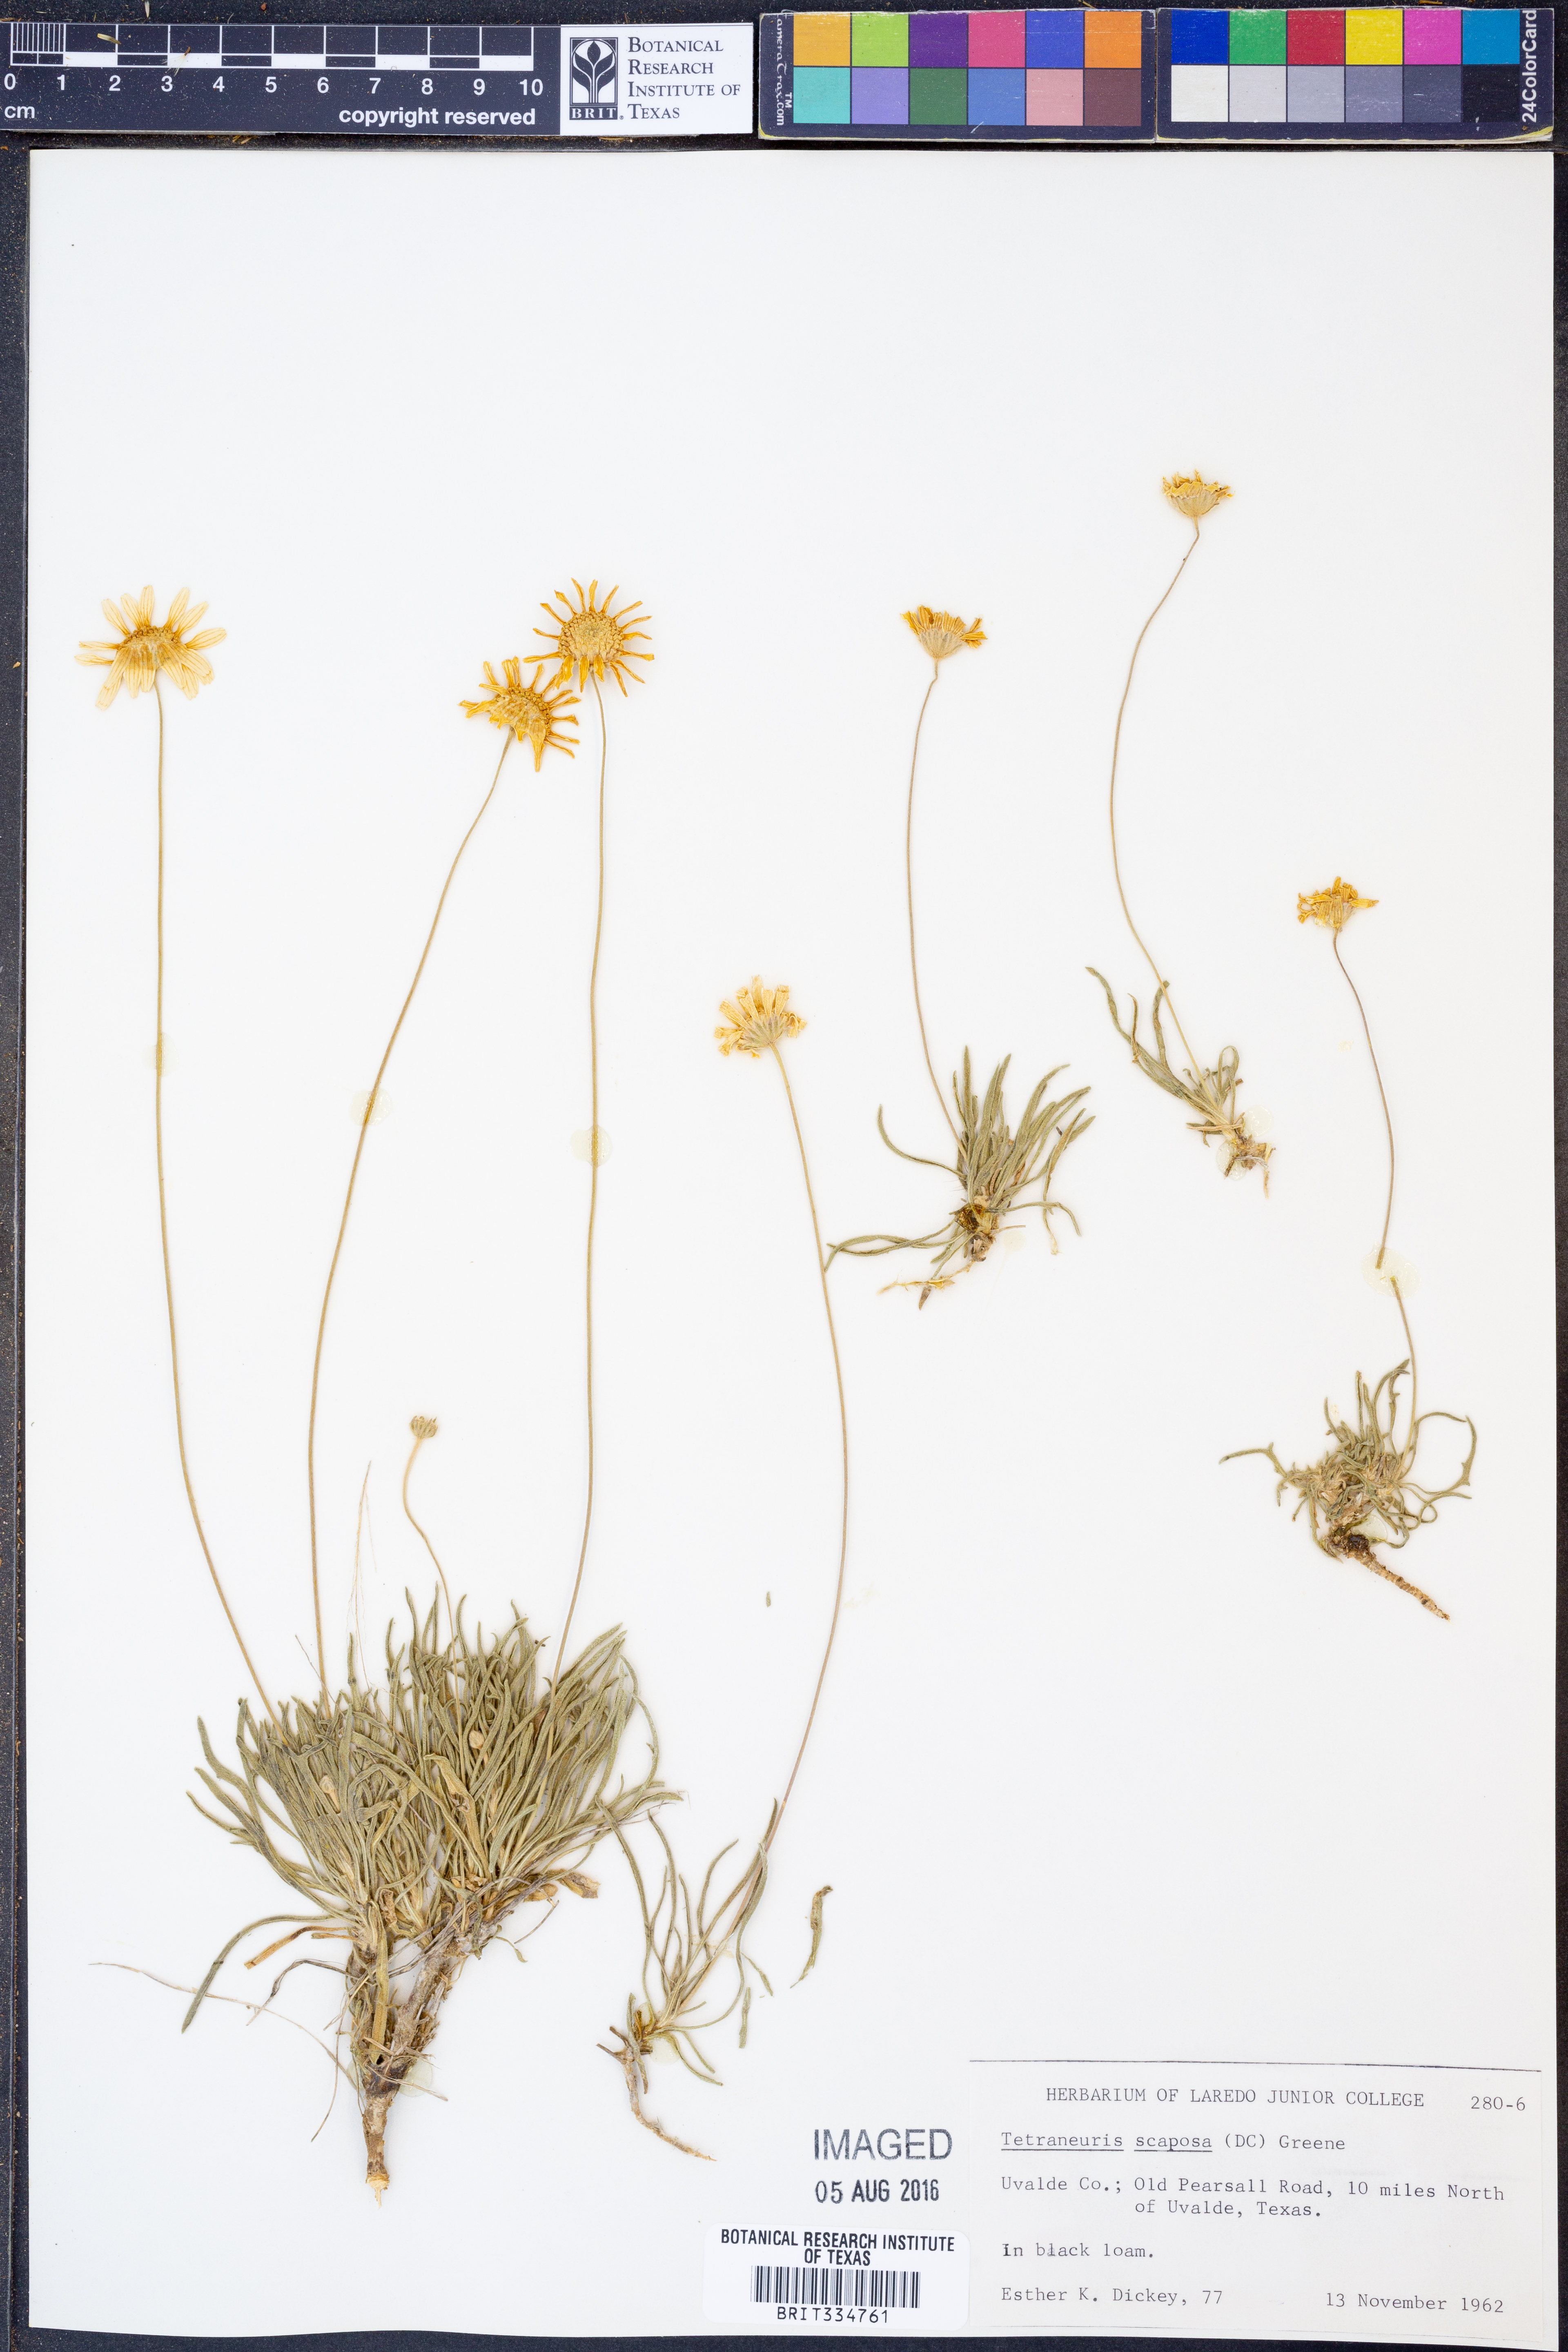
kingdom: Plantae
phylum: Tracheophyta
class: Magnoliopsida
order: Asterales
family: Asteraceae
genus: Tetraneuris
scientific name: Tetraneuris scaposa
